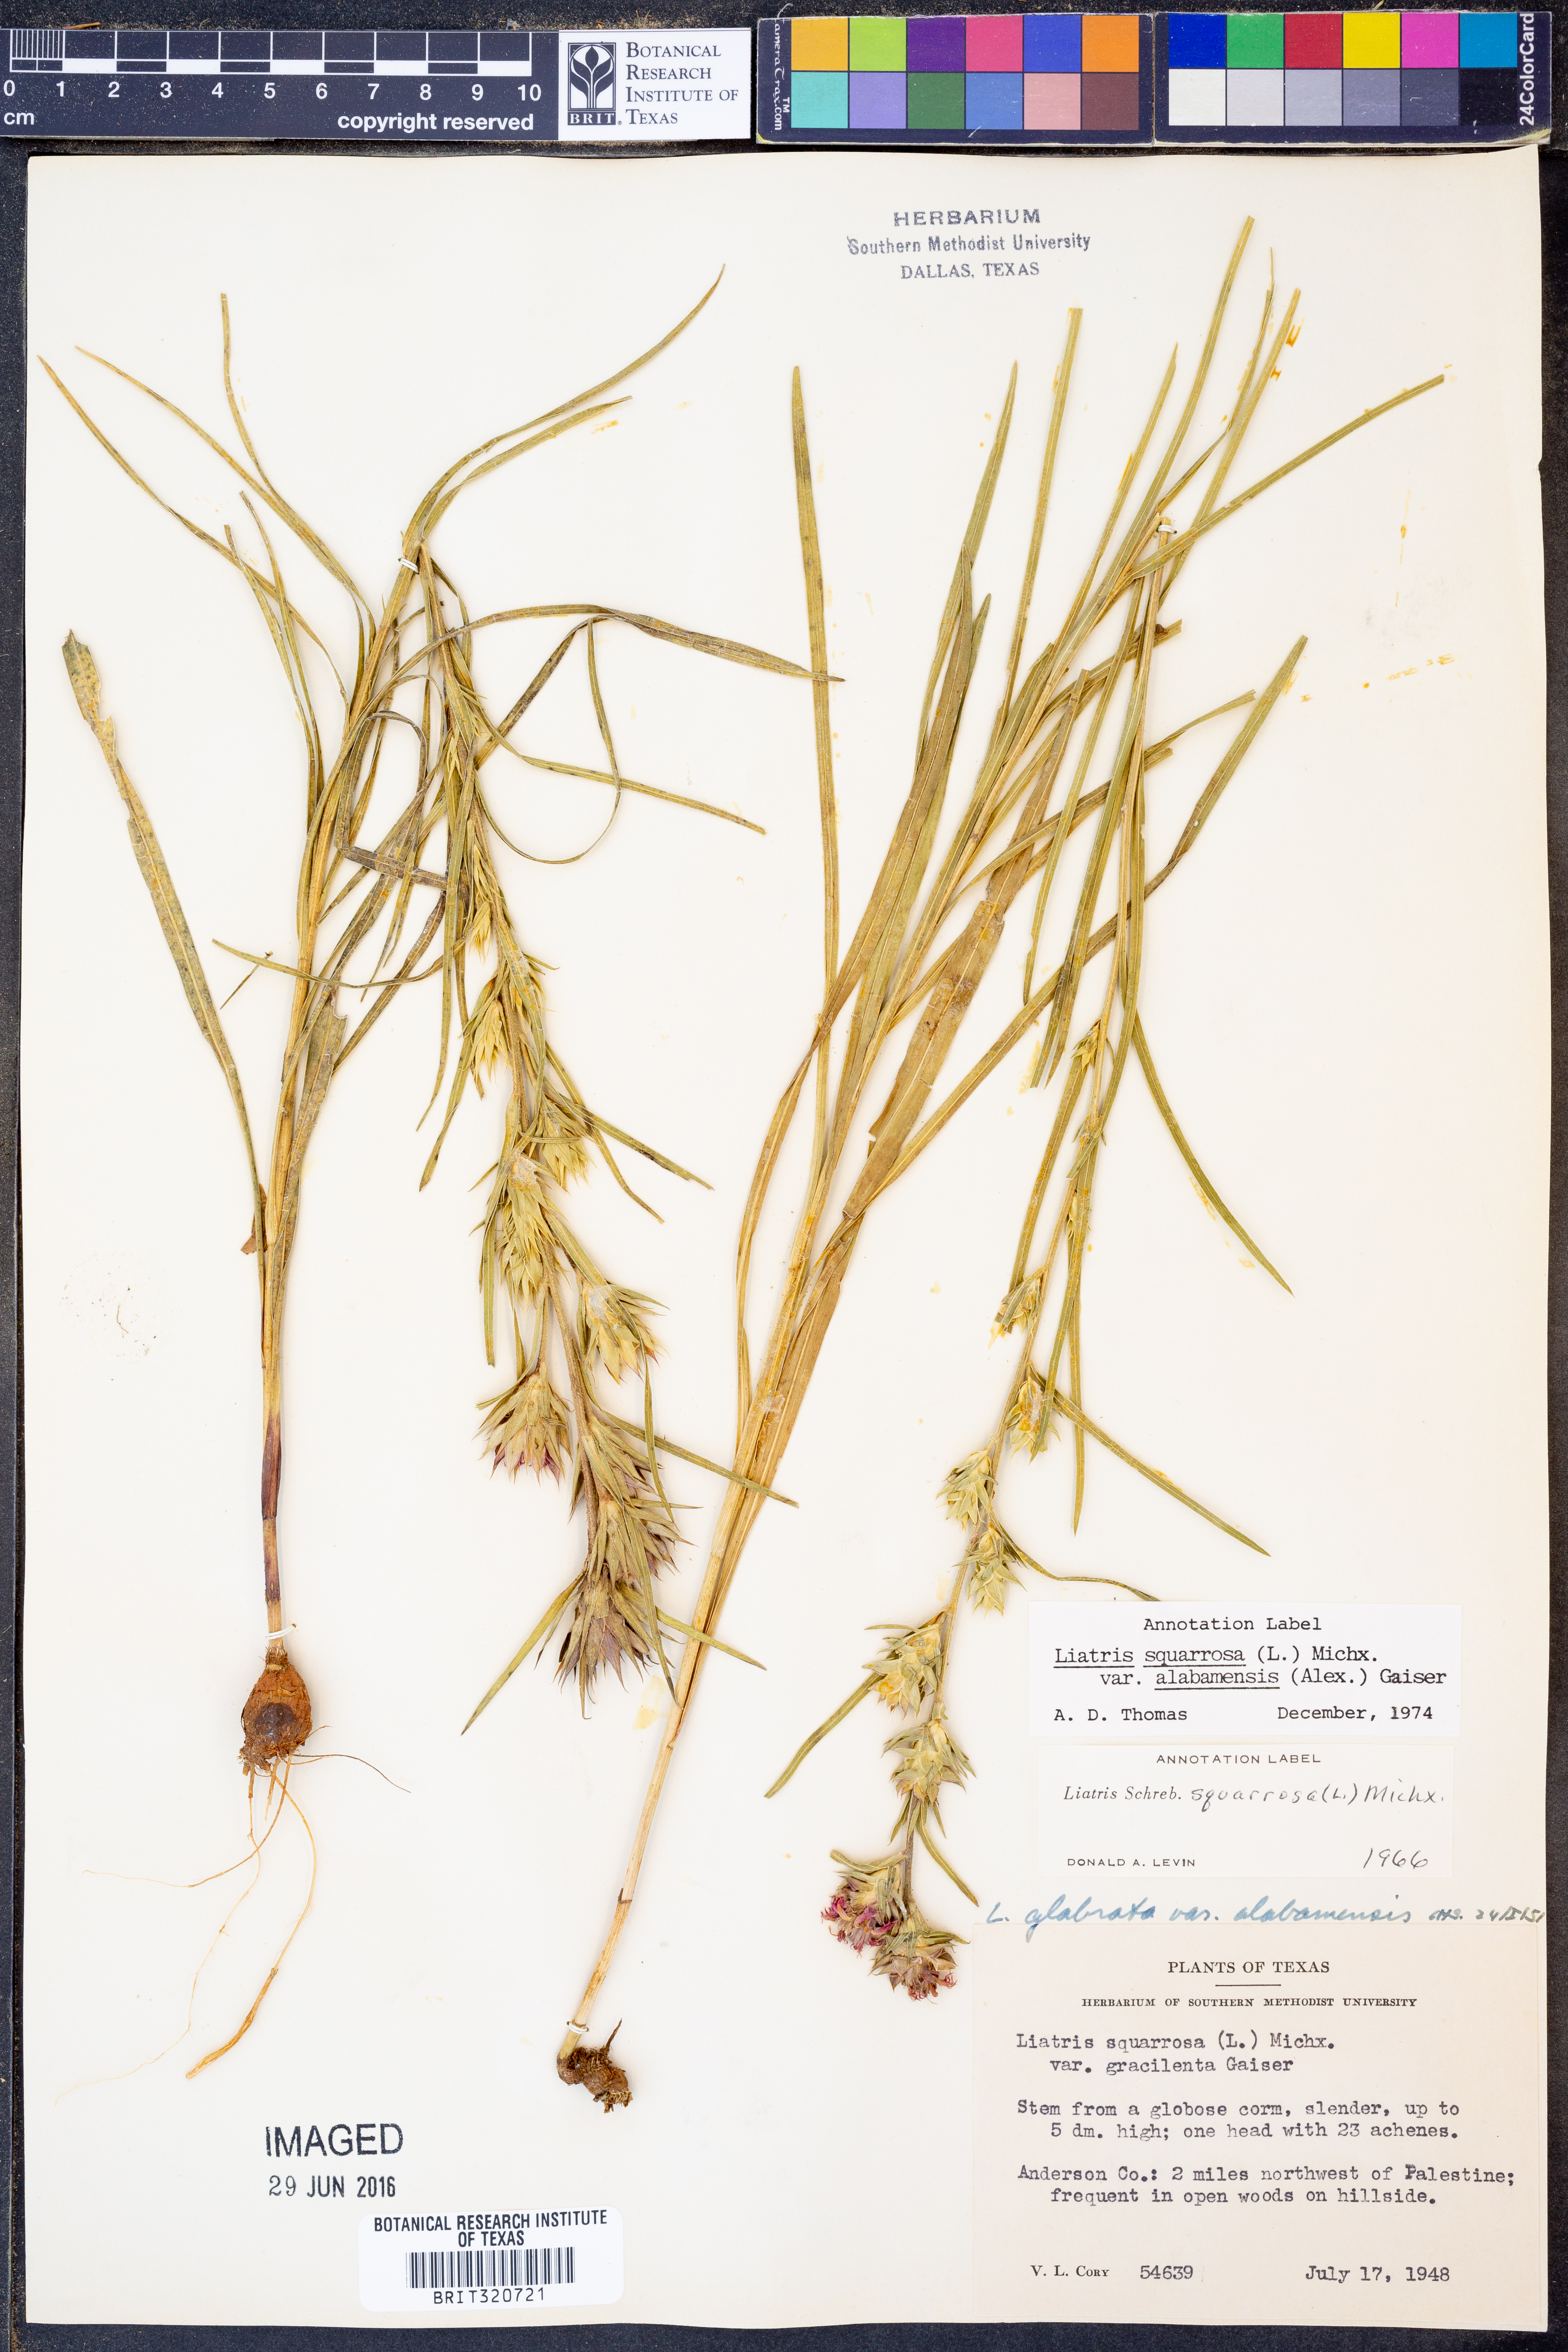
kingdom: Plantae
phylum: Tracheophyta
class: Magnoliopsida
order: Asterales
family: Asteraceae
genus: Liatris
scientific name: Liatris squarrosa
